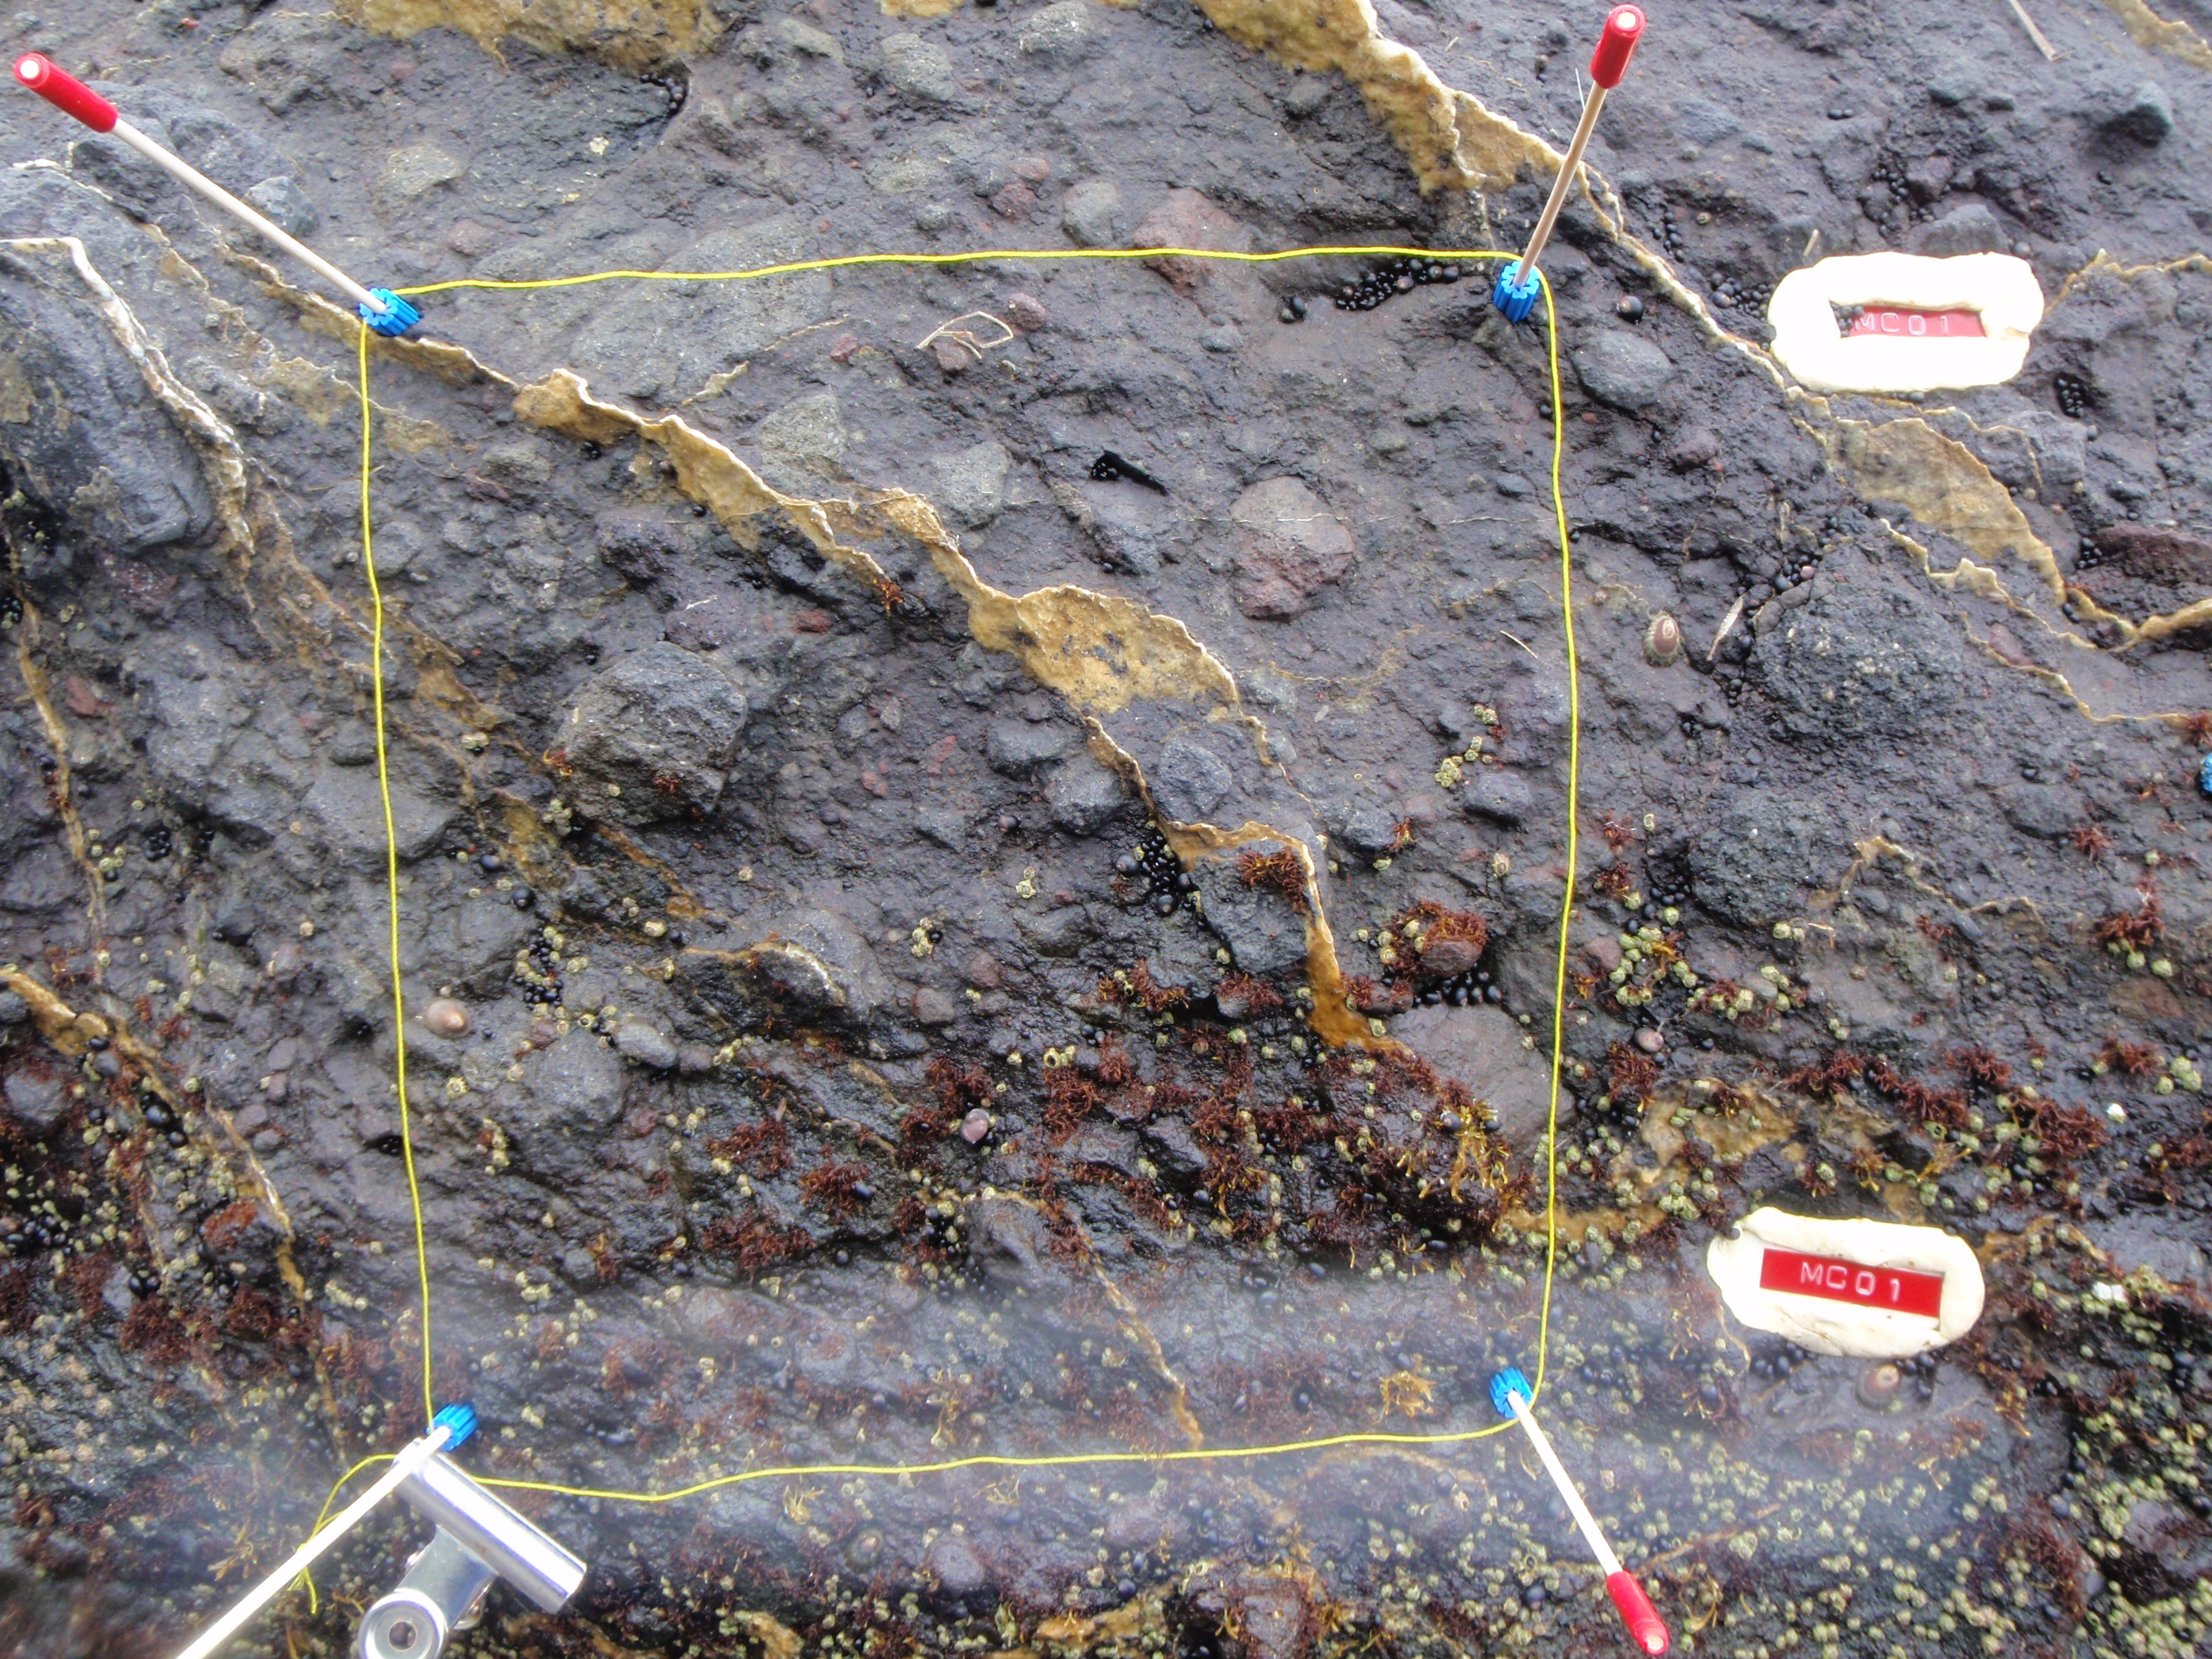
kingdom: Plantae
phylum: Rhodophyta
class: Florideophyceae
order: Gigartinales
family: Endocladiaceae
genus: Gloiopeltis
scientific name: Gloiopeltis furcata
